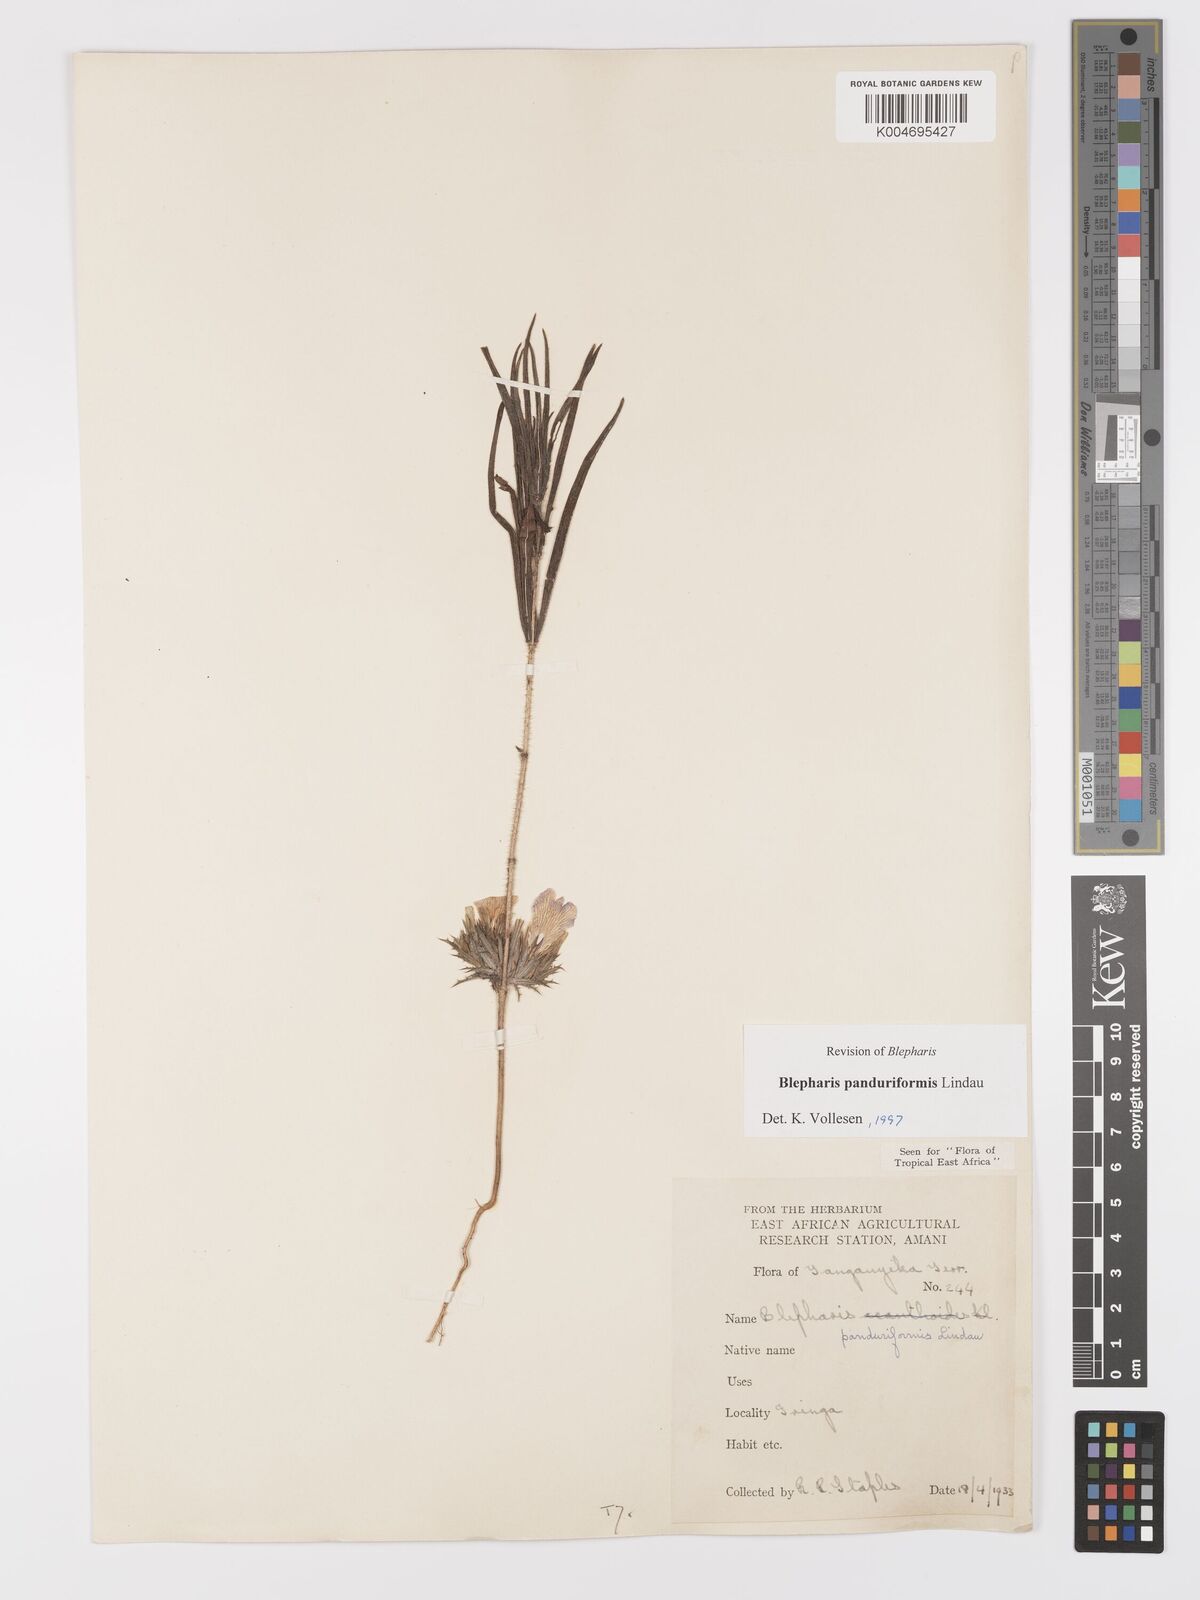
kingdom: Plantae
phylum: Tracheophyta
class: Magnoliopsida
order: Lamiales
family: Acanthaceae
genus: Blepharis
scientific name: Blepharis panduriformis
